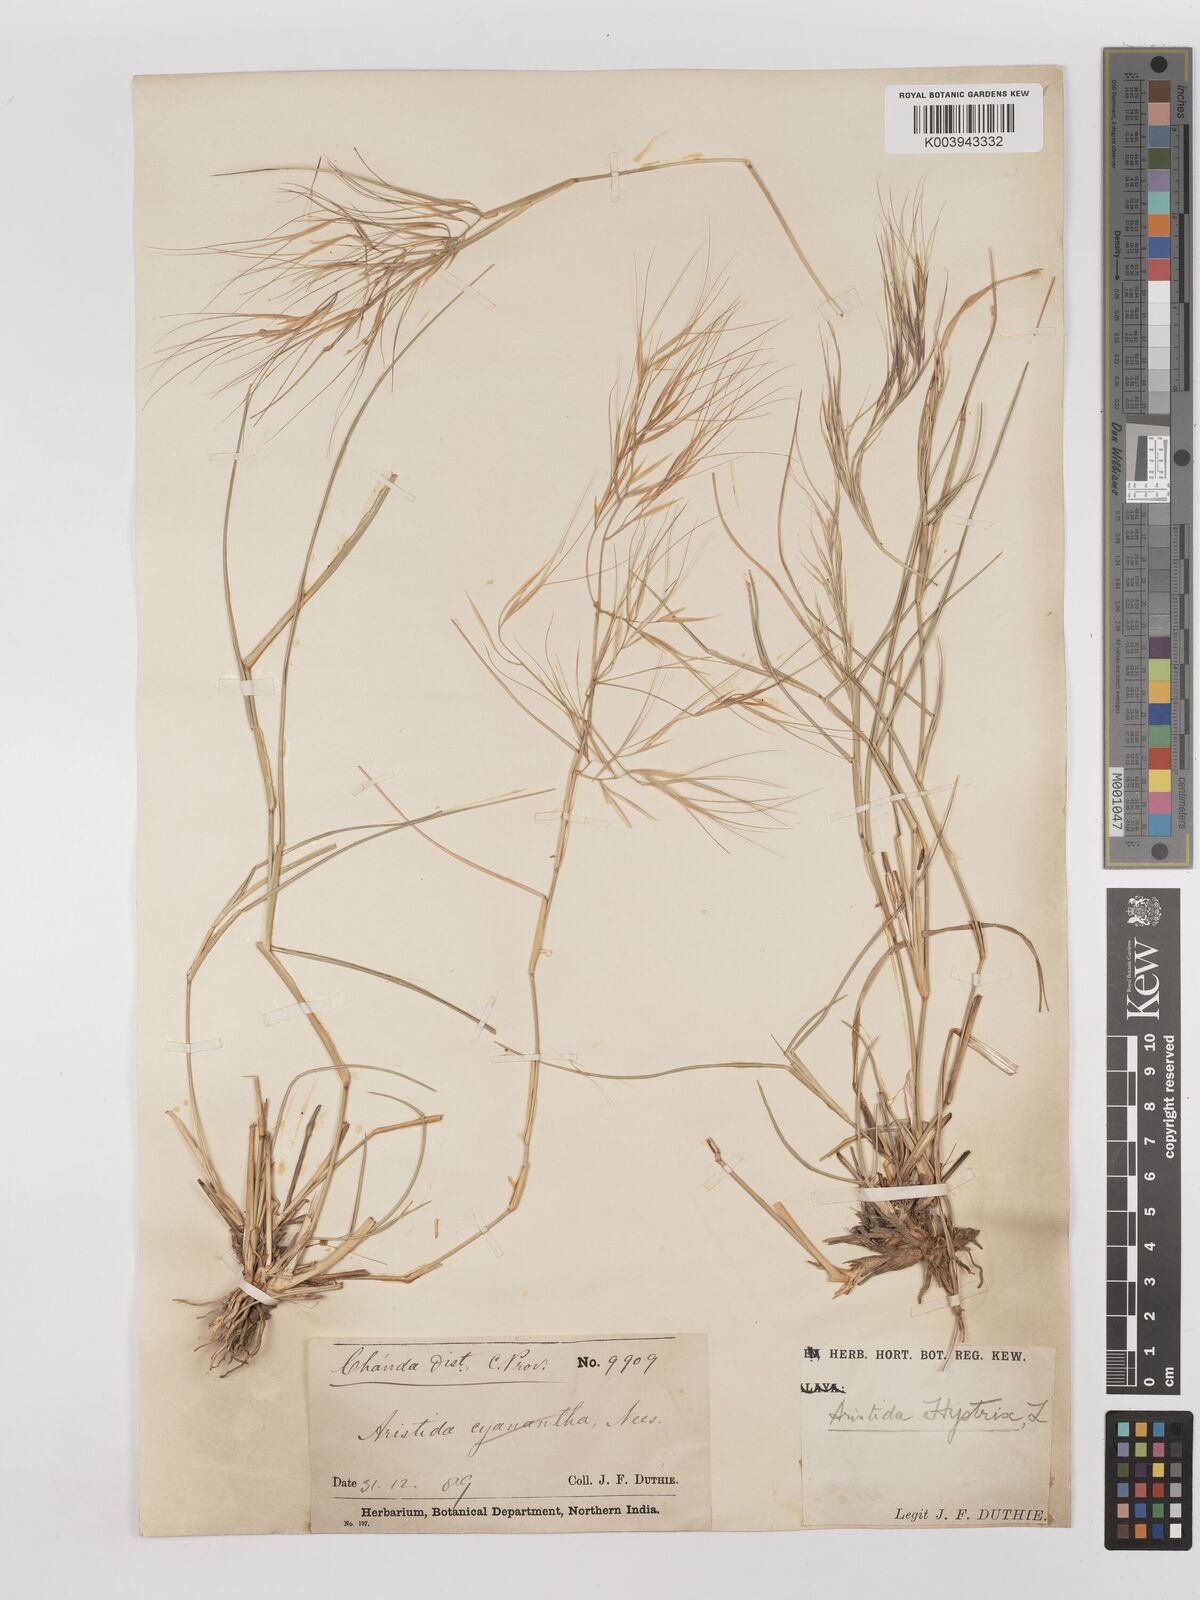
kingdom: Plantae
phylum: Tracheophyta
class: Liliopsida
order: Poales
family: Poaceae
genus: Aristida
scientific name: Aristida hystrix
